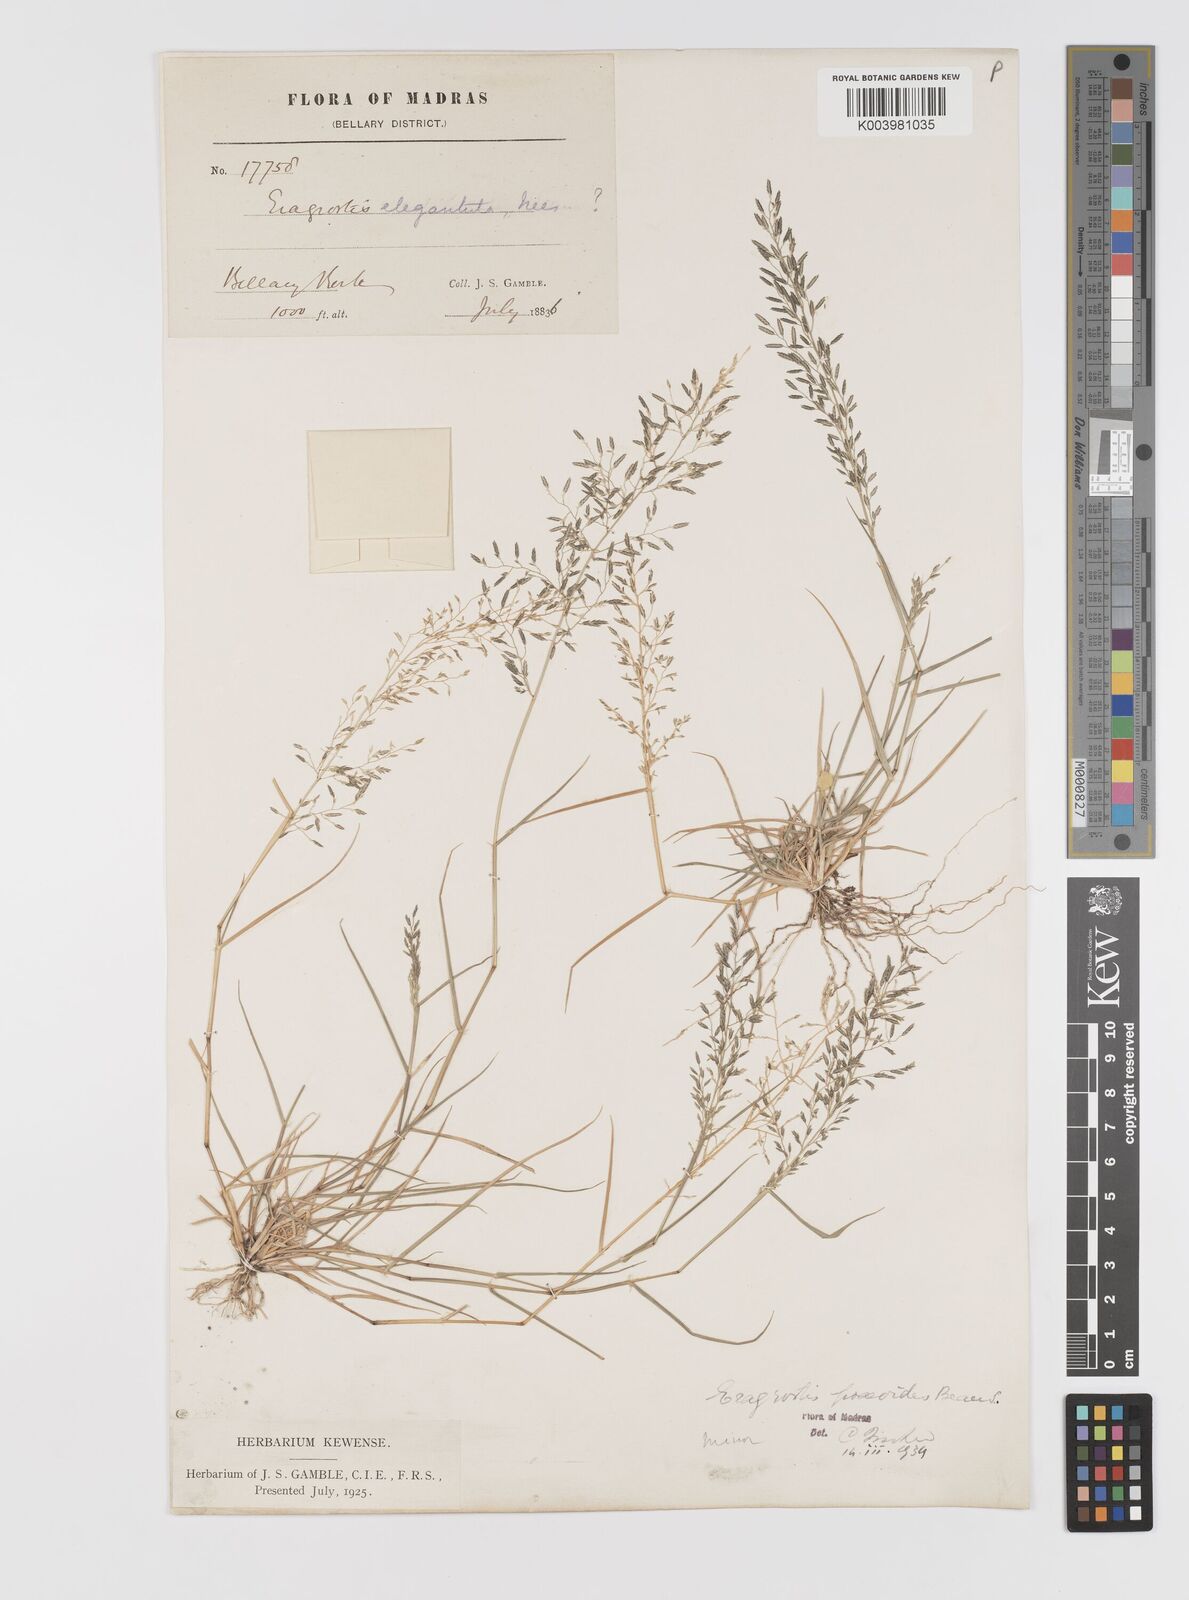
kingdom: Plantae
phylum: Tracheophyta
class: Liliopsida
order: Poales
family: Poaceae
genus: Eragrostis
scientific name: Eragrostis minor
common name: Small love-grass
